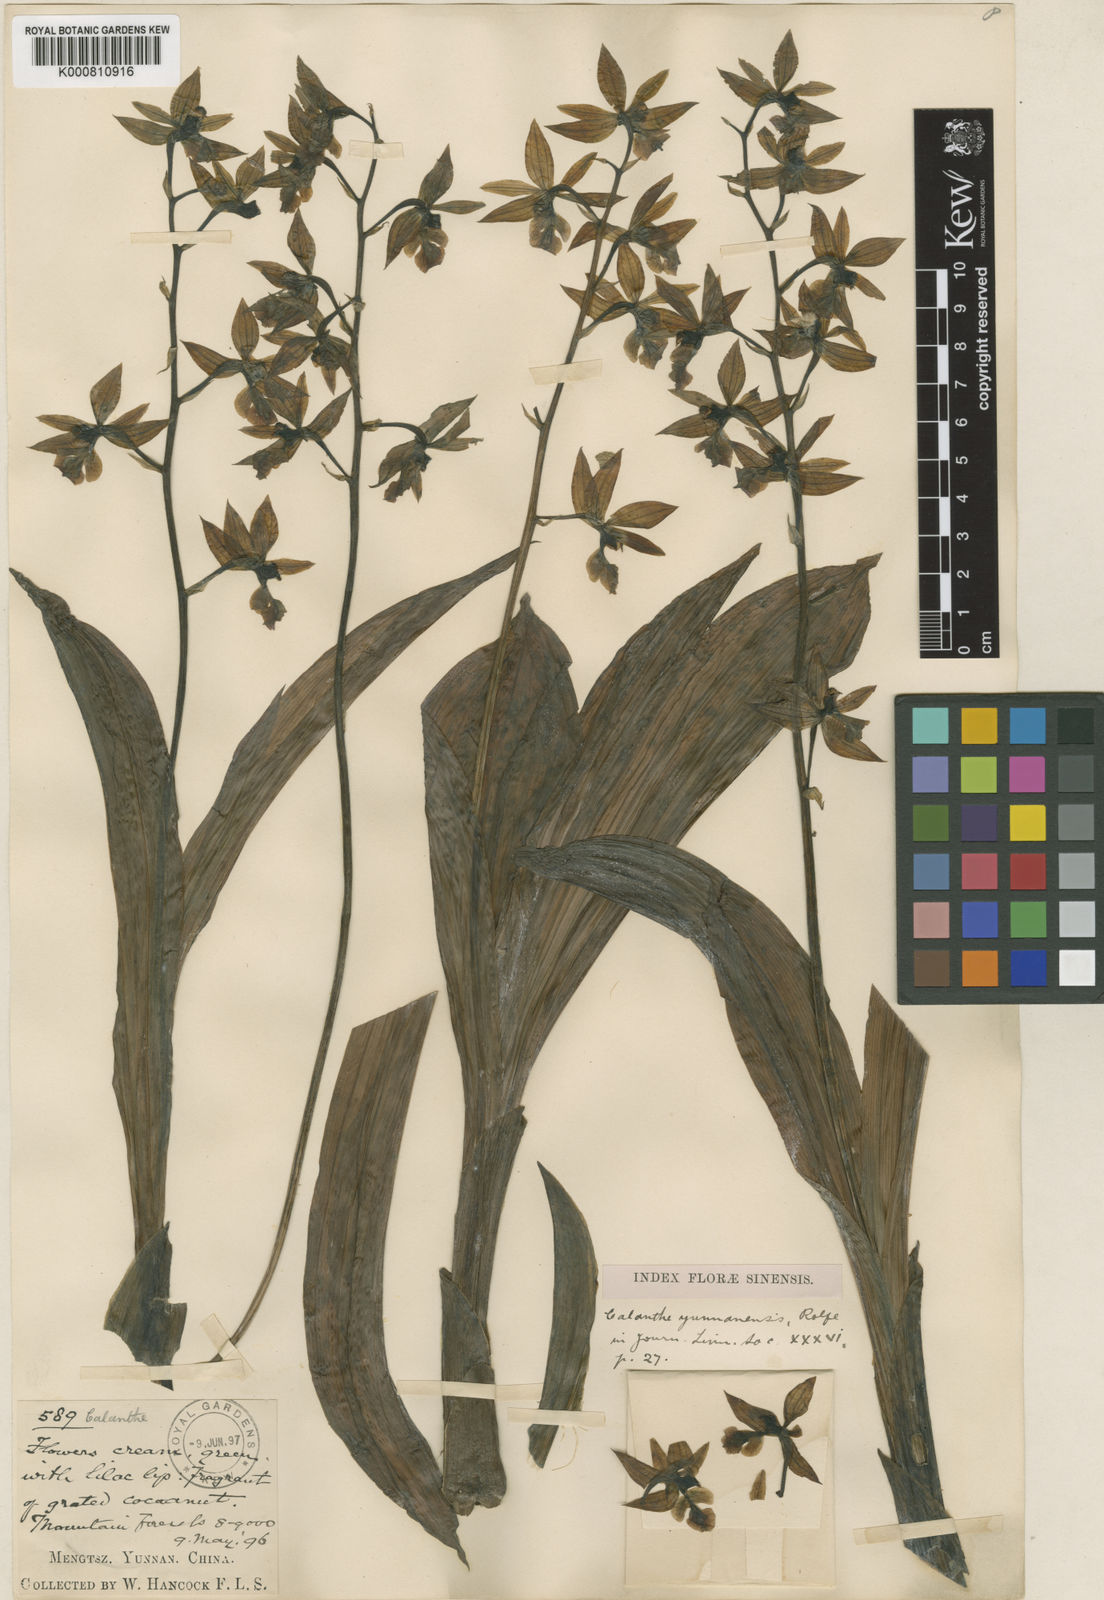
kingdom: Plantae
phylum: Tracheophyta
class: Liliopsida
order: Asparagales
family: Orchidaceae
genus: Calanthe
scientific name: Calanthe lamellosa
